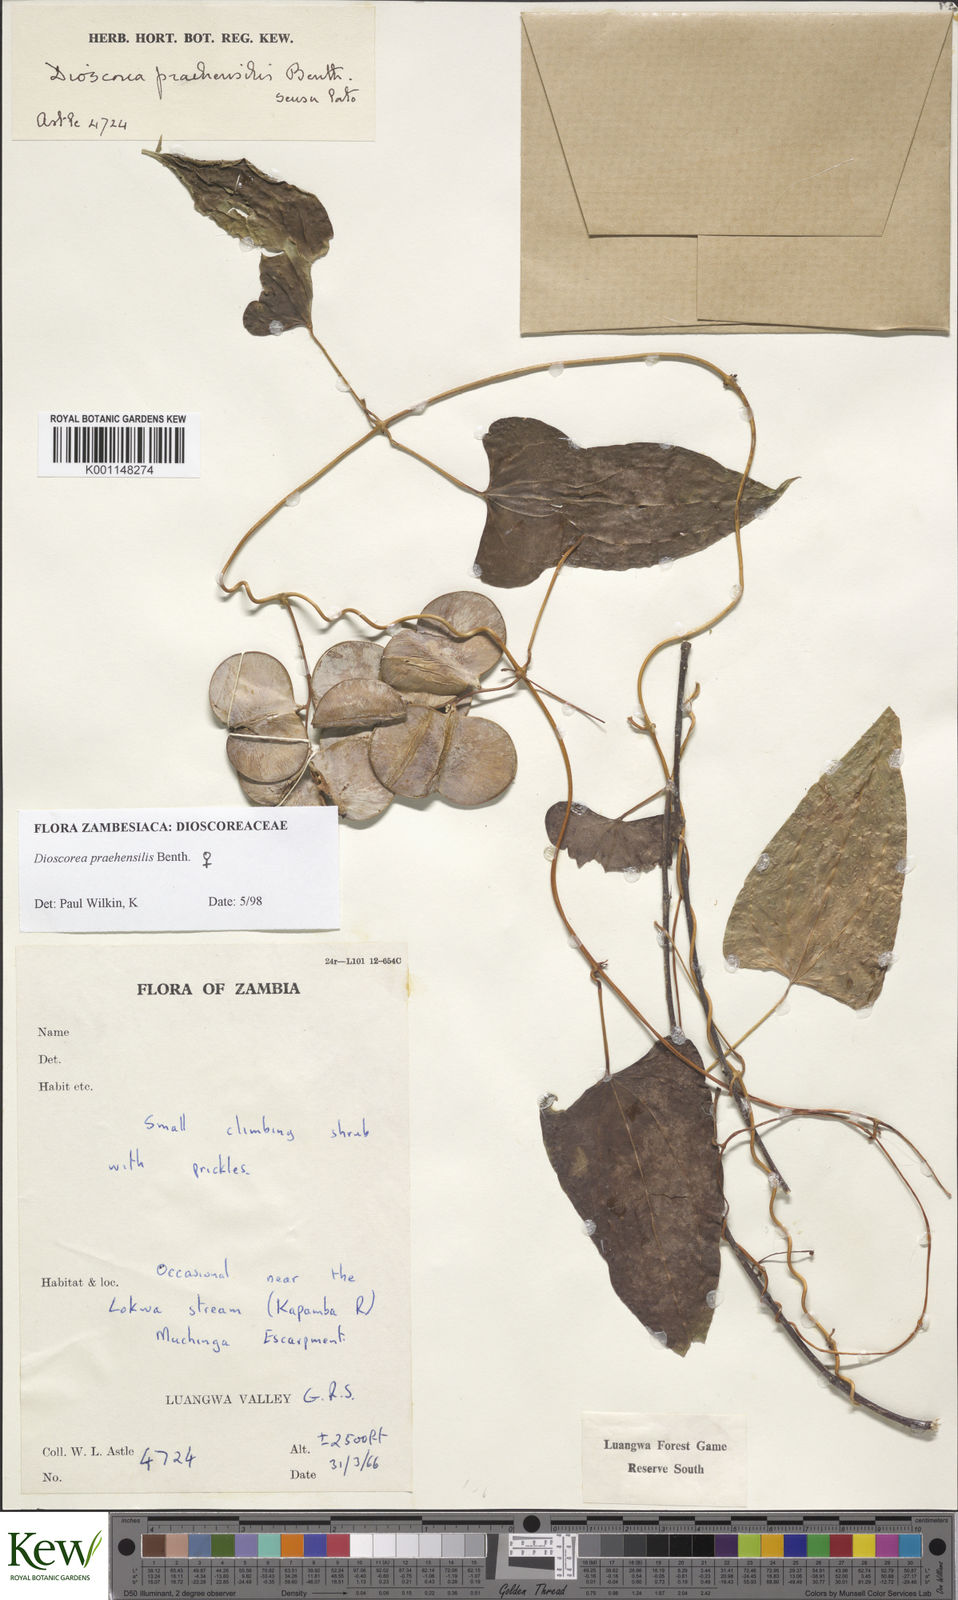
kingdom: Plantae
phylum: Tracheophyta
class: Liliopsida
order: Dioscoreales
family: Dioscoreaceae
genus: Dioscorea
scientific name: Dioscorea praehensilis
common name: Bush yam
